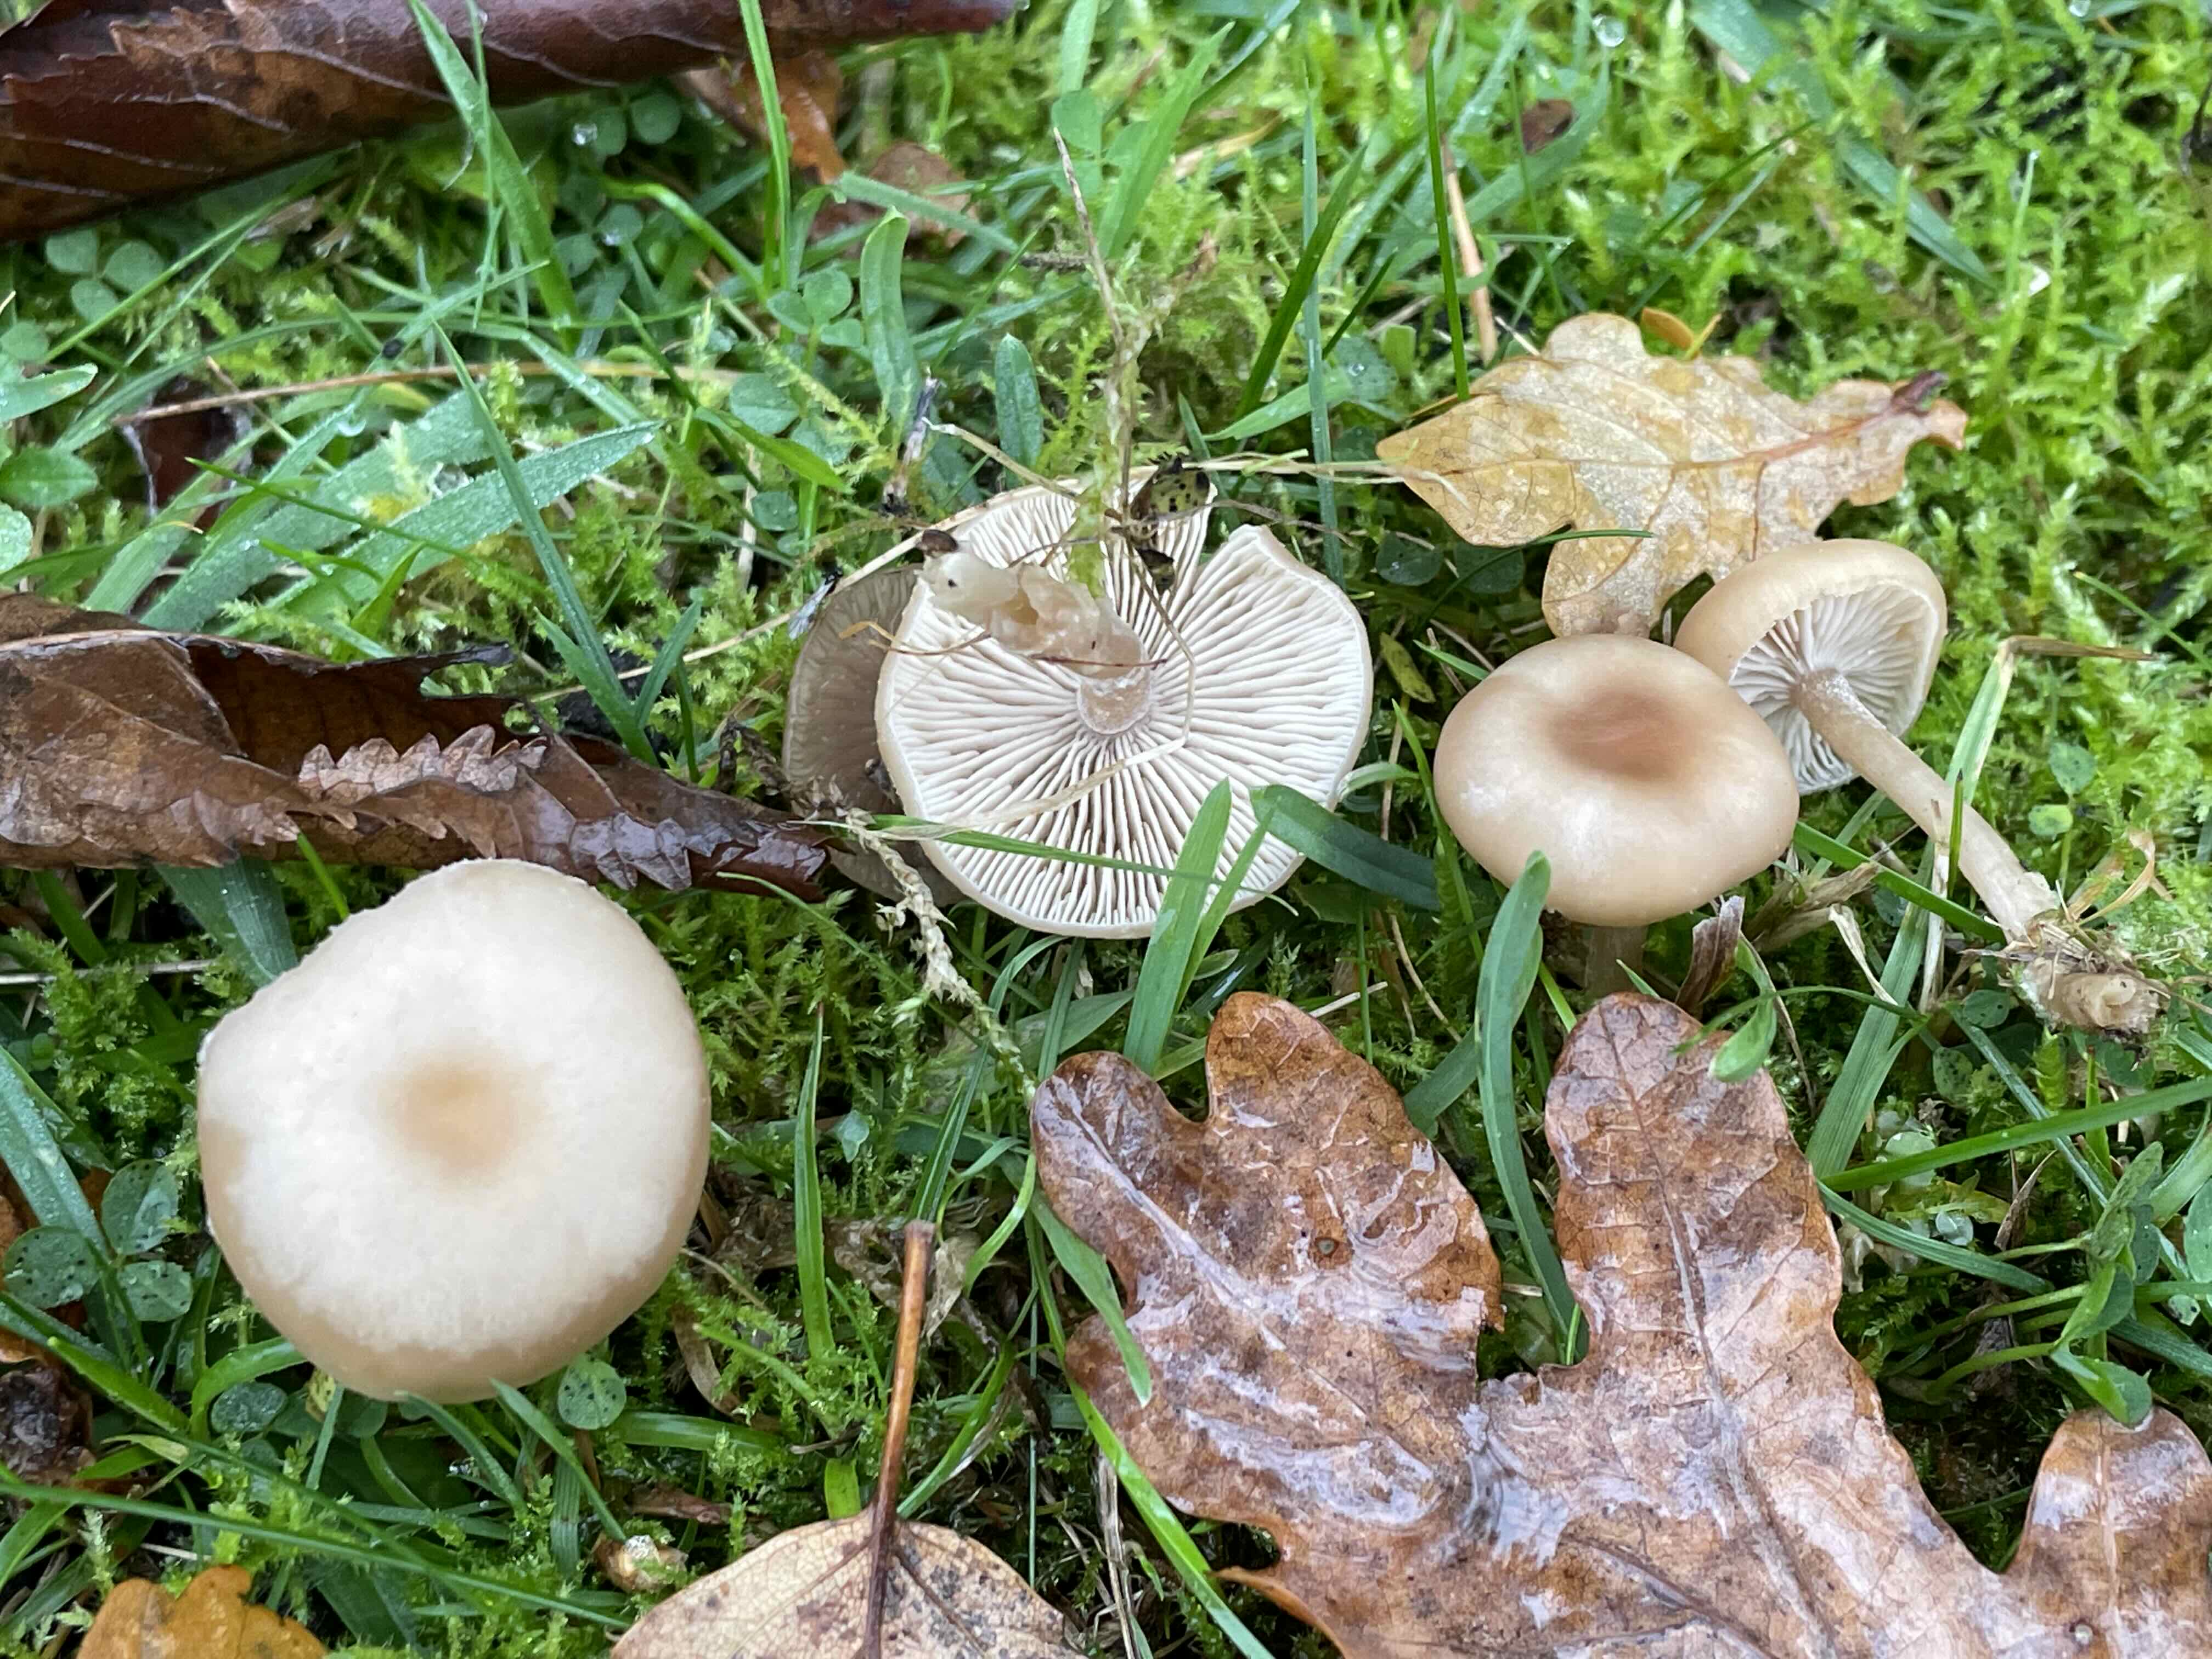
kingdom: Fungi
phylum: Basidiomycota
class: Agaricomycetes
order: Agaricales
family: Tricholomataceae
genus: Clitocybe
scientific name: Clitocybe fragrans
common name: vellugtende tragthat
